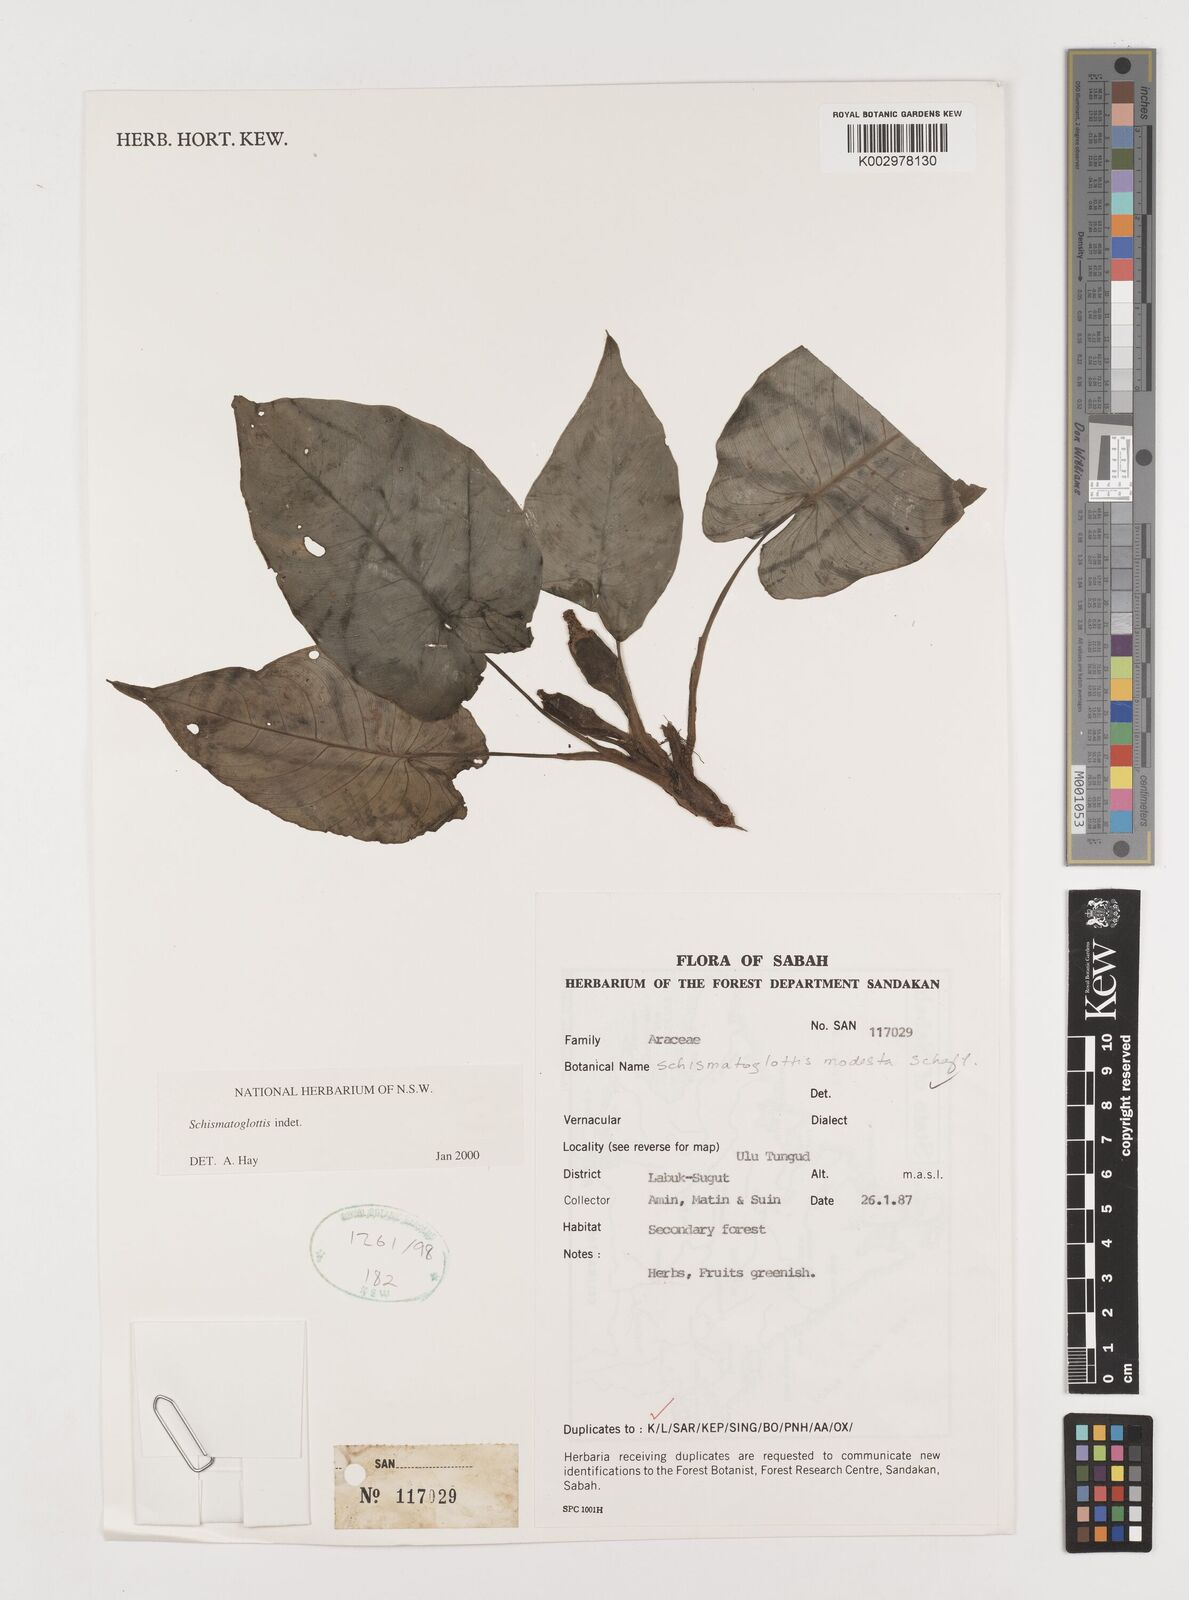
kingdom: Plantae
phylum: Tracheophyta
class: Liliopsida
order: Alismatales
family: Araceae
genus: Schismatoglottis
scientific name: Schismatoglottis
